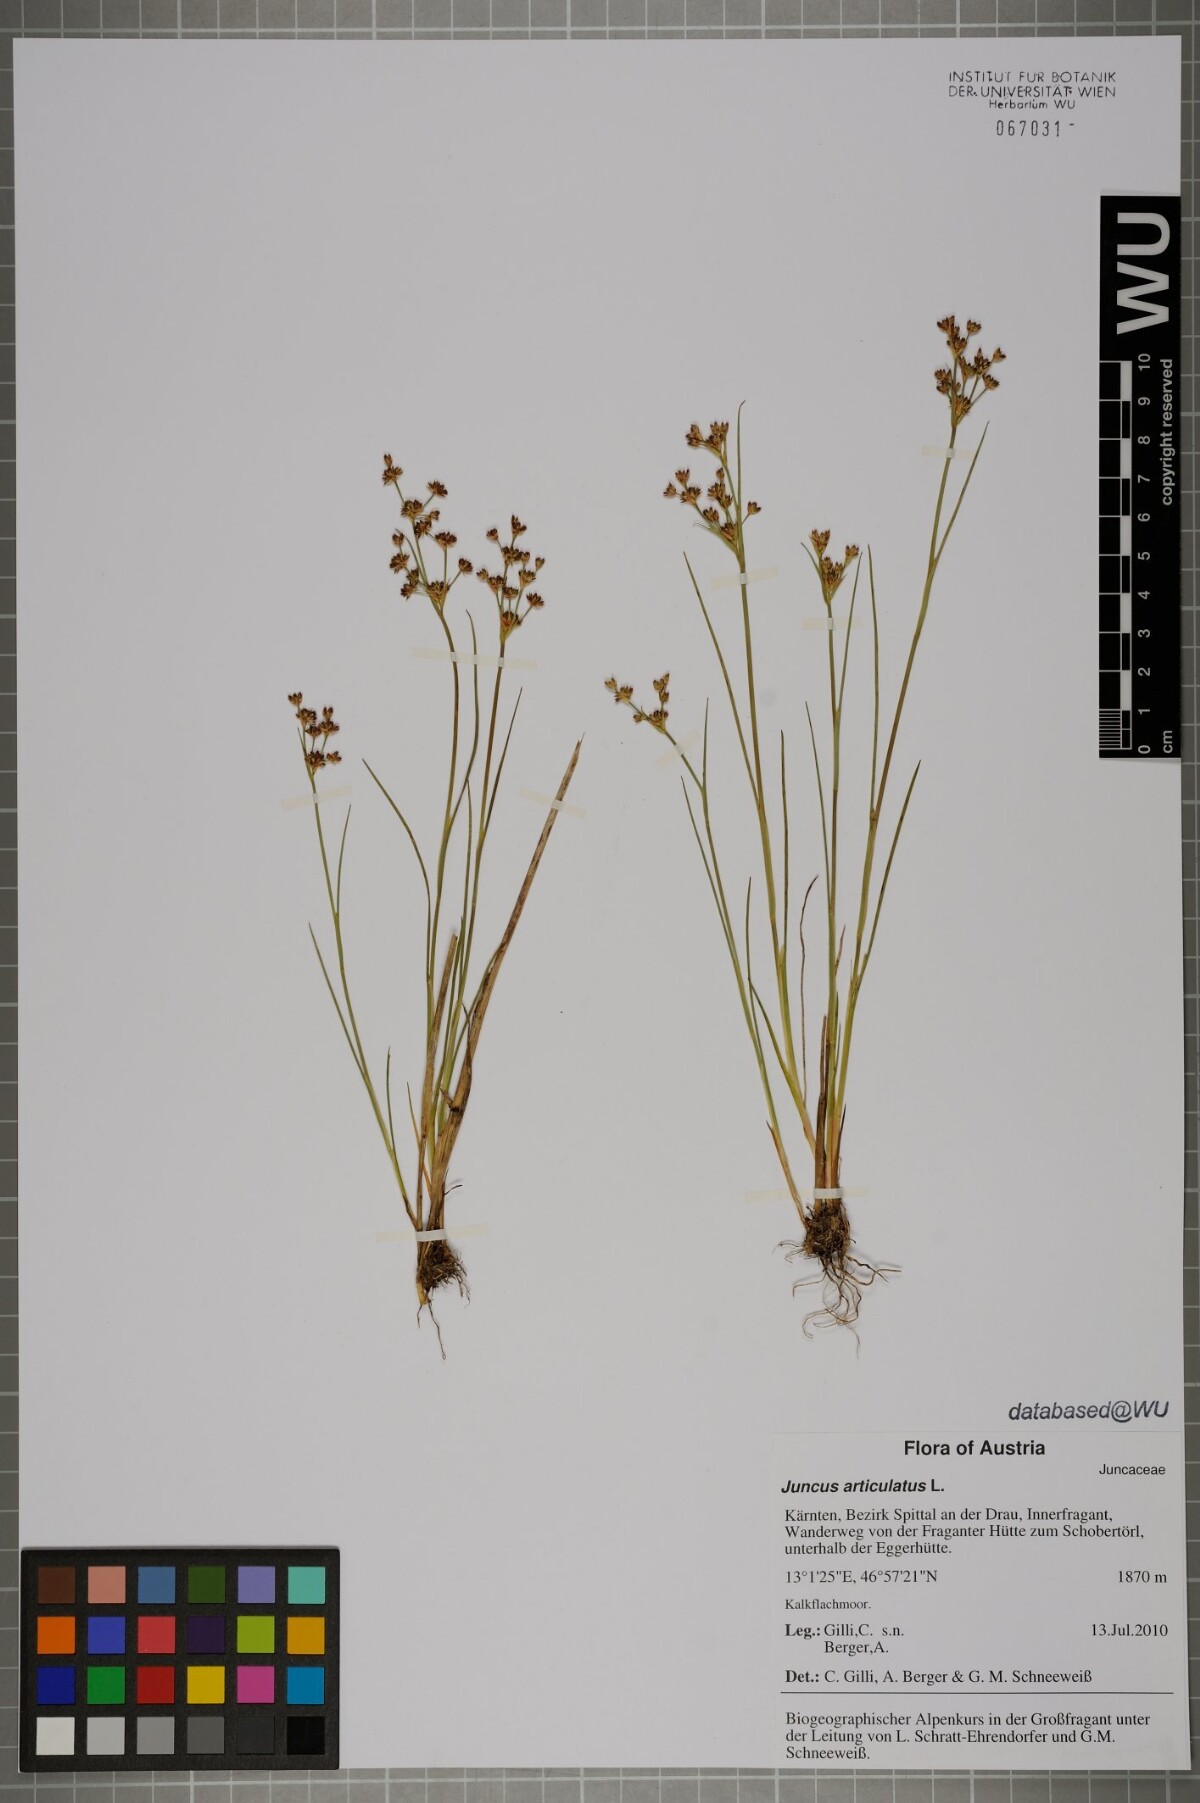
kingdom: Plantae
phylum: Tracheophyta
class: Liliopsida
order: Poales
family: Juncaceae
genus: Juncus
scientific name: Juncus articulatus
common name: Jointed rush
